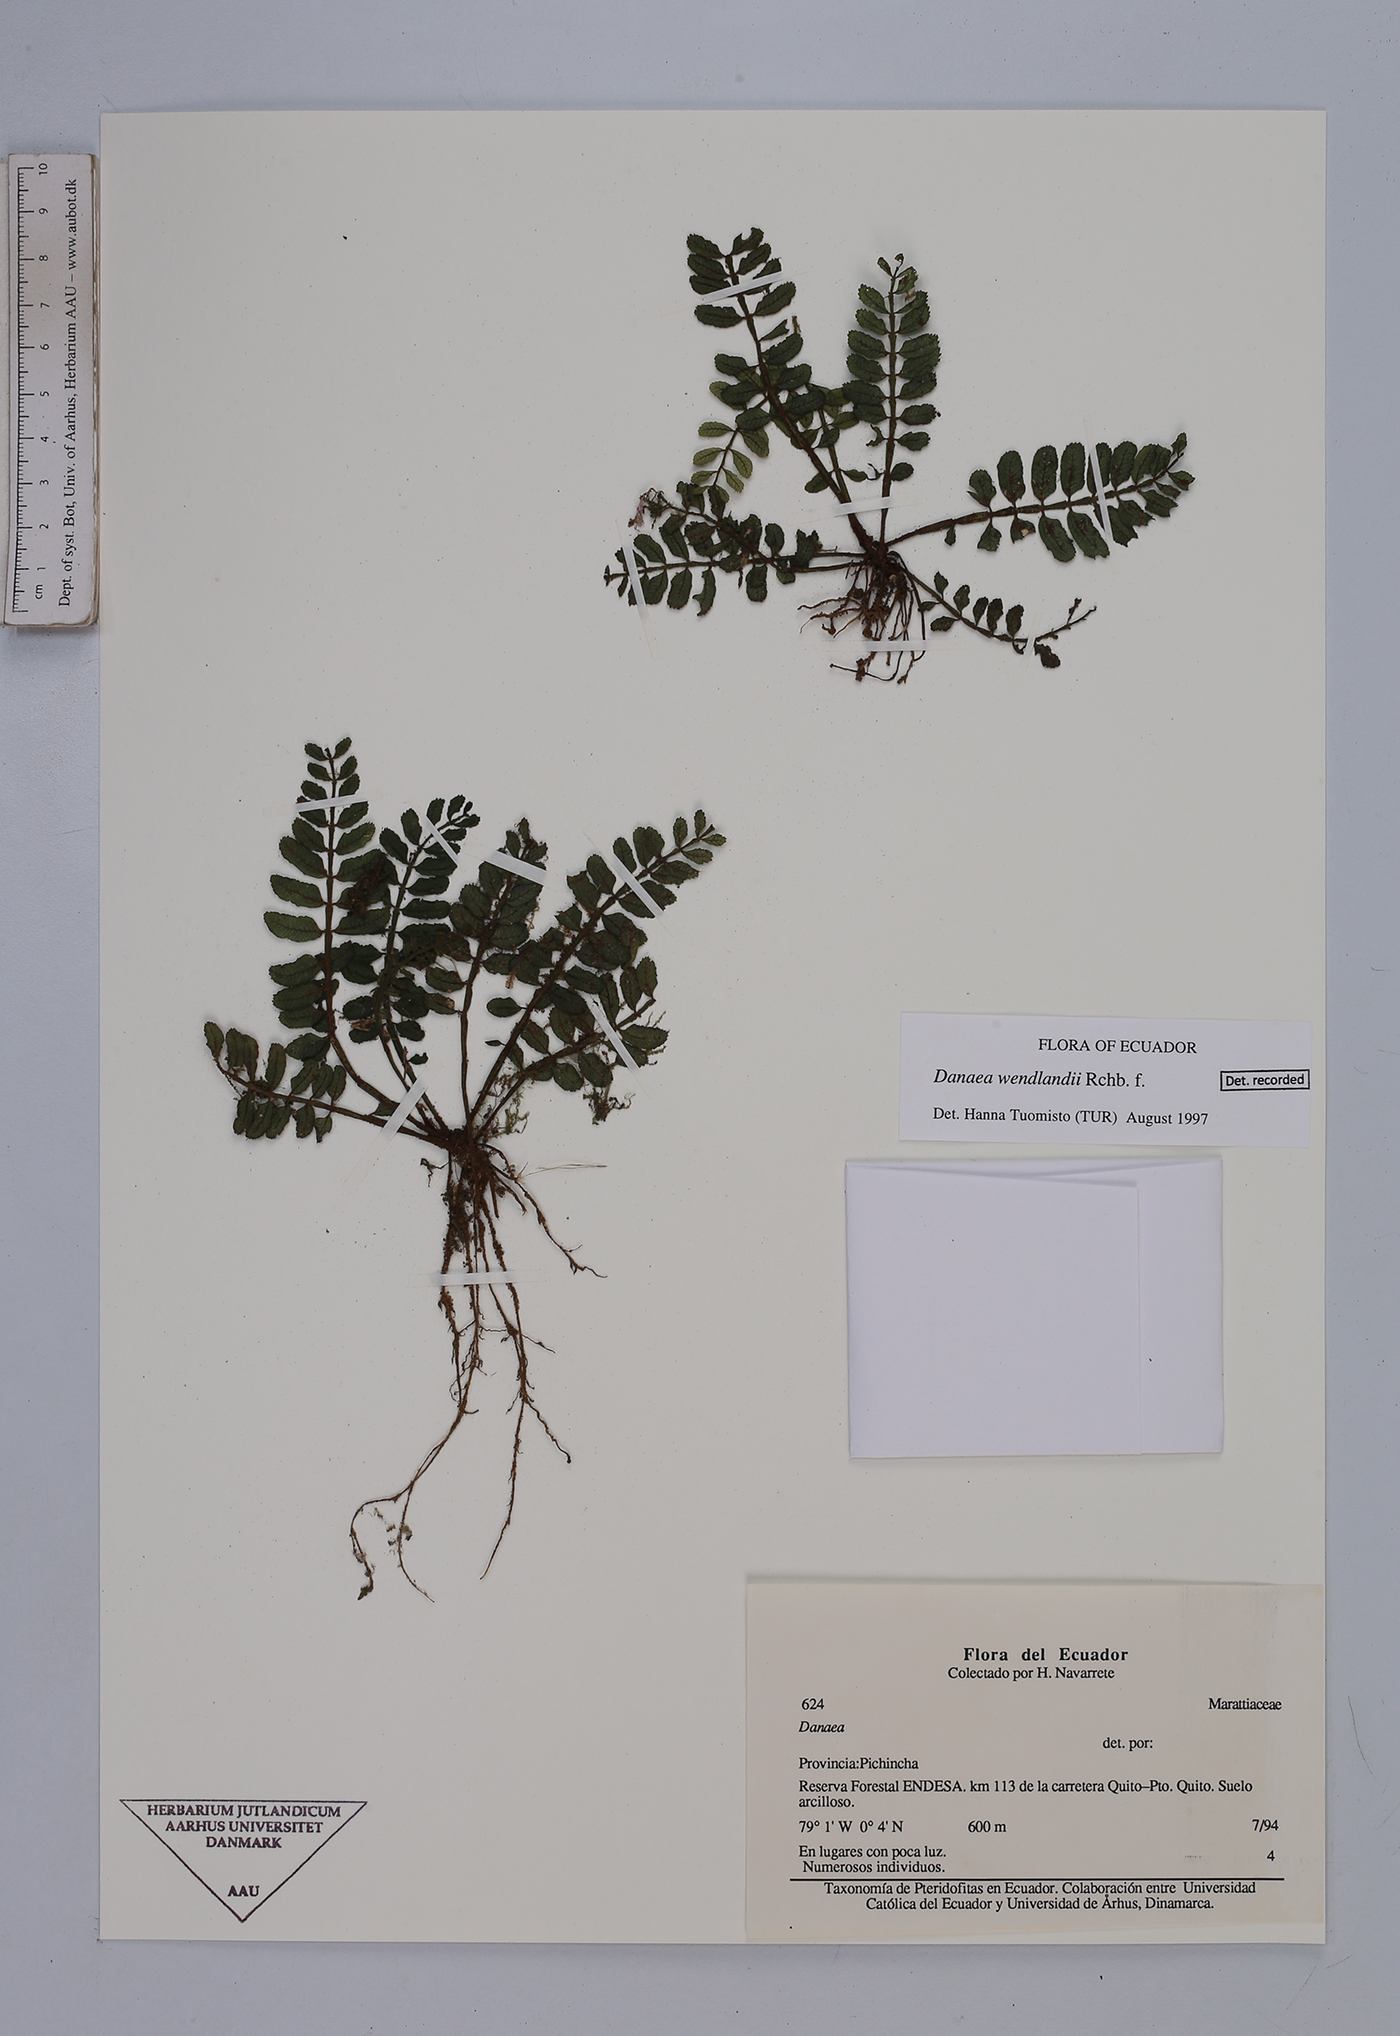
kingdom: Plantae
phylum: Tracheophyta
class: Polypodiopsida
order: Marattiales
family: Marattiaceae
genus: Danaea
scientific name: Danaea wendlandii
